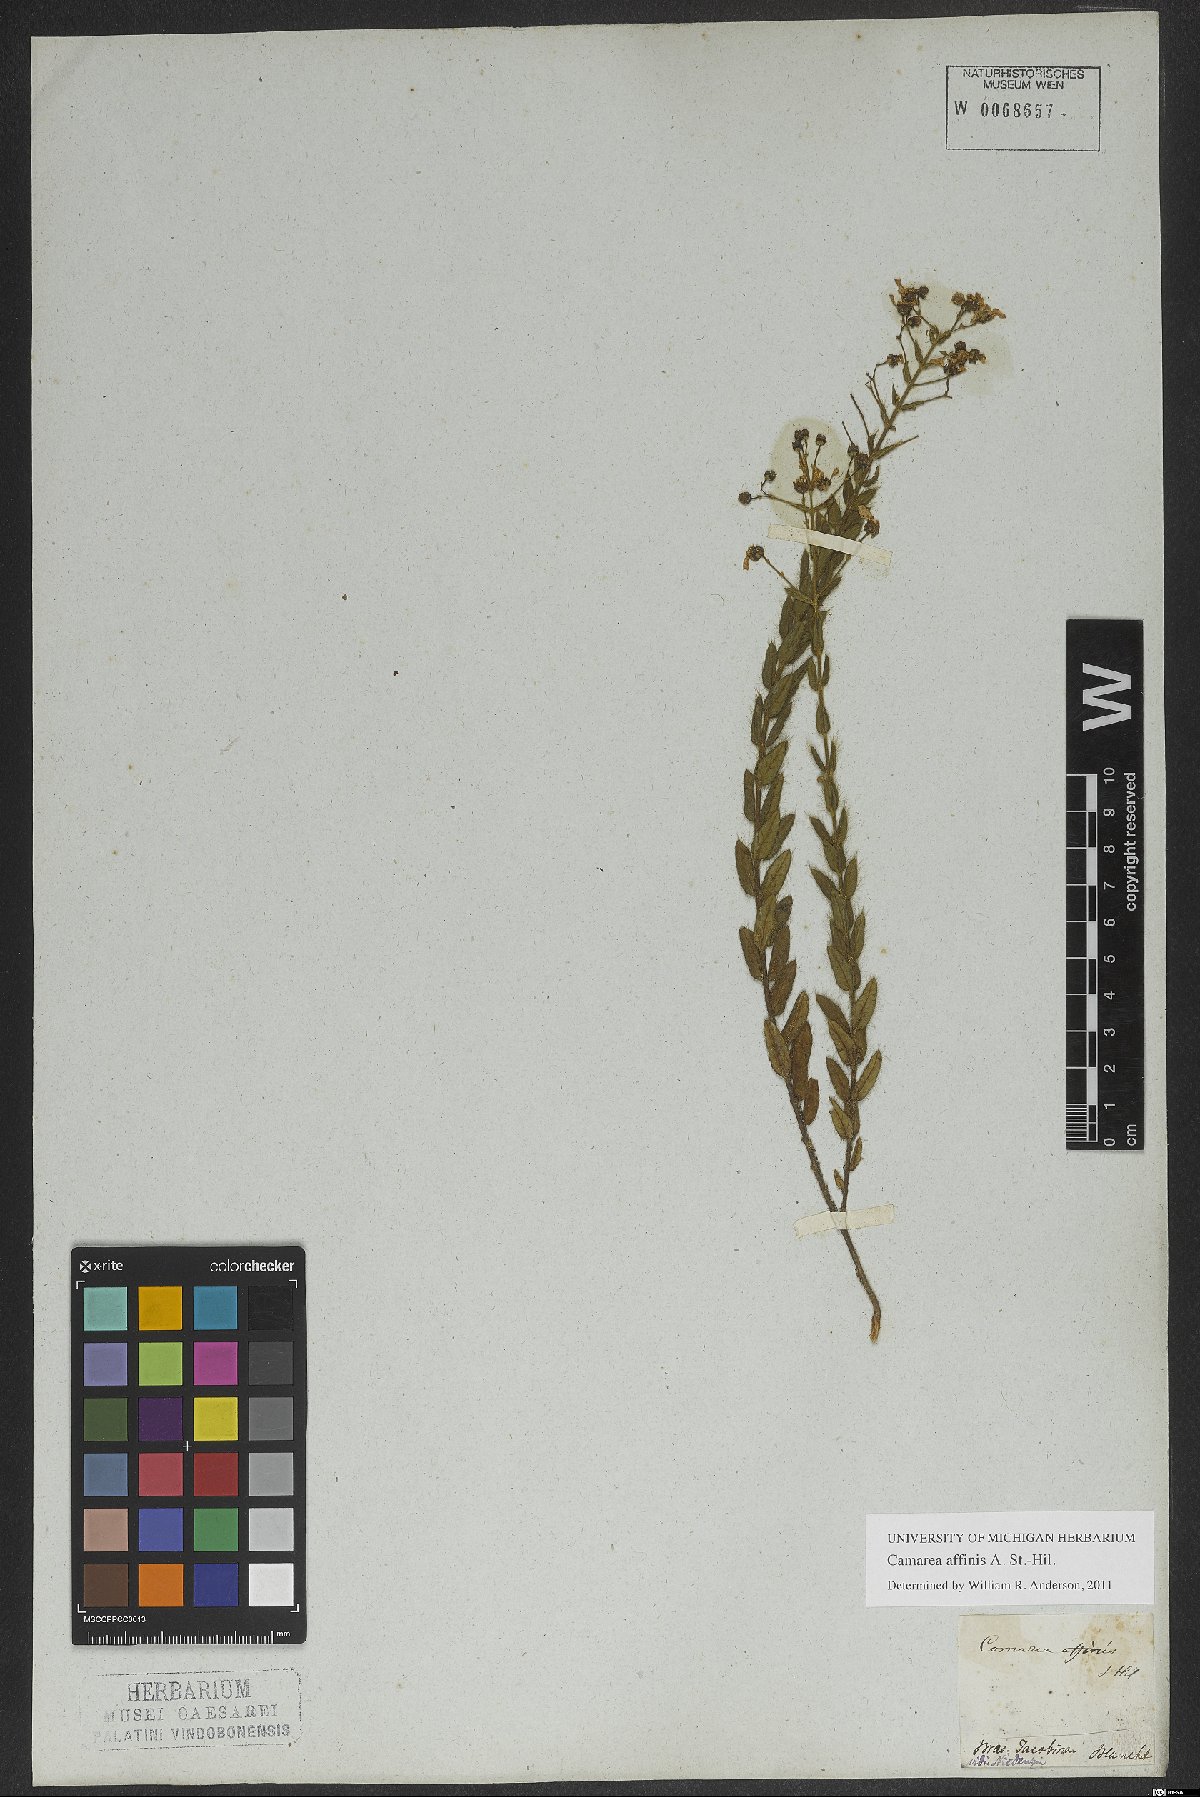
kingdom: Plantae
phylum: Tracheophyta
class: Magnoliopsida
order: Malpighiales
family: Malpighiaceae
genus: Camarea
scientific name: Camarea affinis
